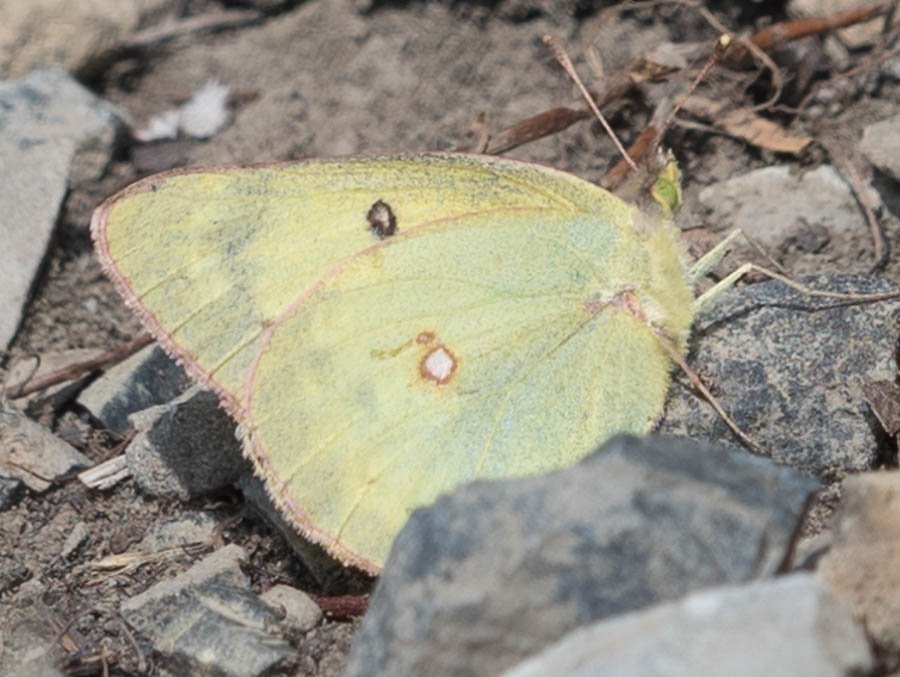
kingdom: Animalia
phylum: Arthropoda
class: Insecta
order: Lepidoptera
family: Pieridae
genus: Colias
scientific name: Colias interior
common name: Pink-edged Sulphur
